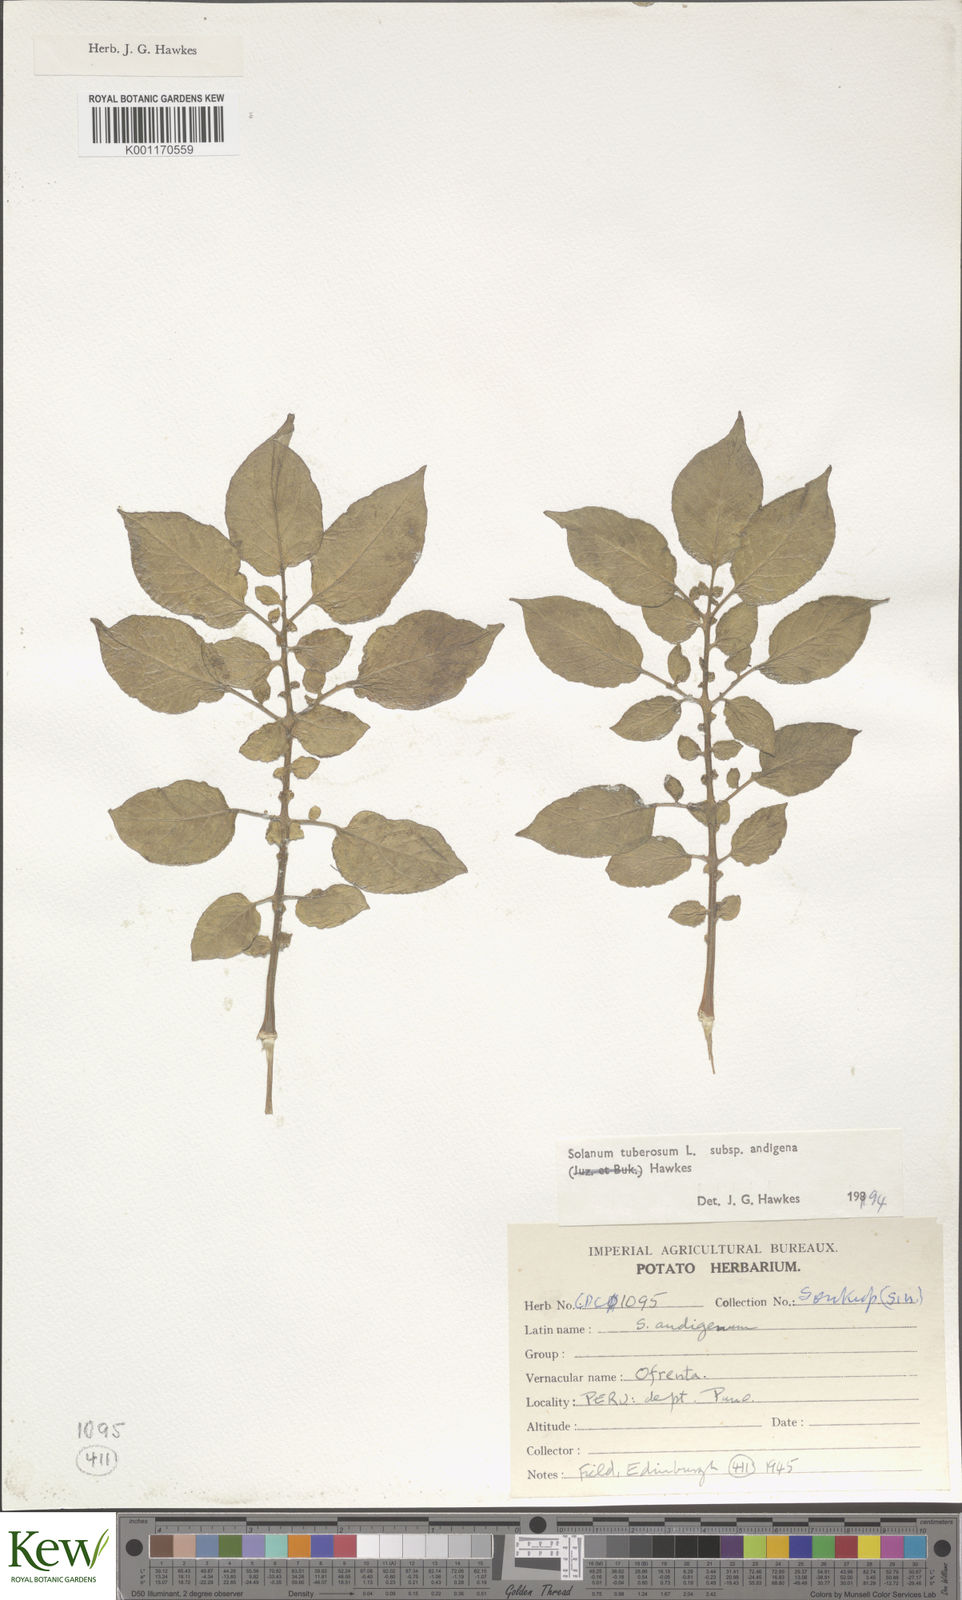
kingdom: Plantae
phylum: Tracheophyta
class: Magnoliopsida
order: Solanales
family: Solanaceae
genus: Solanum
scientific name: Solanum tuberosum
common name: Potato
